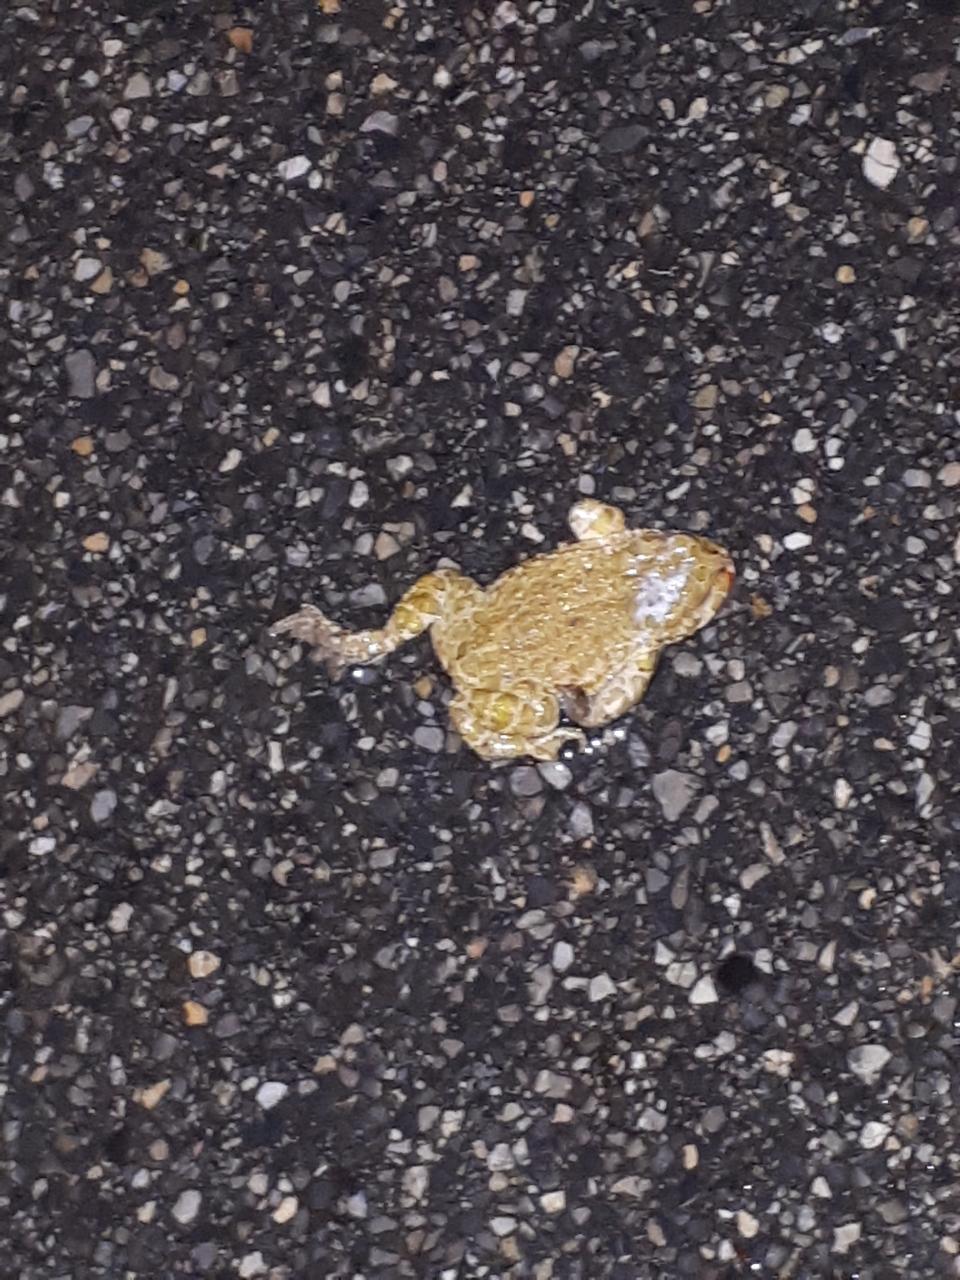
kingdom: Animalia
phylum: Chordata
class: Amphibia
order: Anura
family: Bufonidae
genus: Bufotes
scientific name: Bufotes viridis
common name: European green toad
